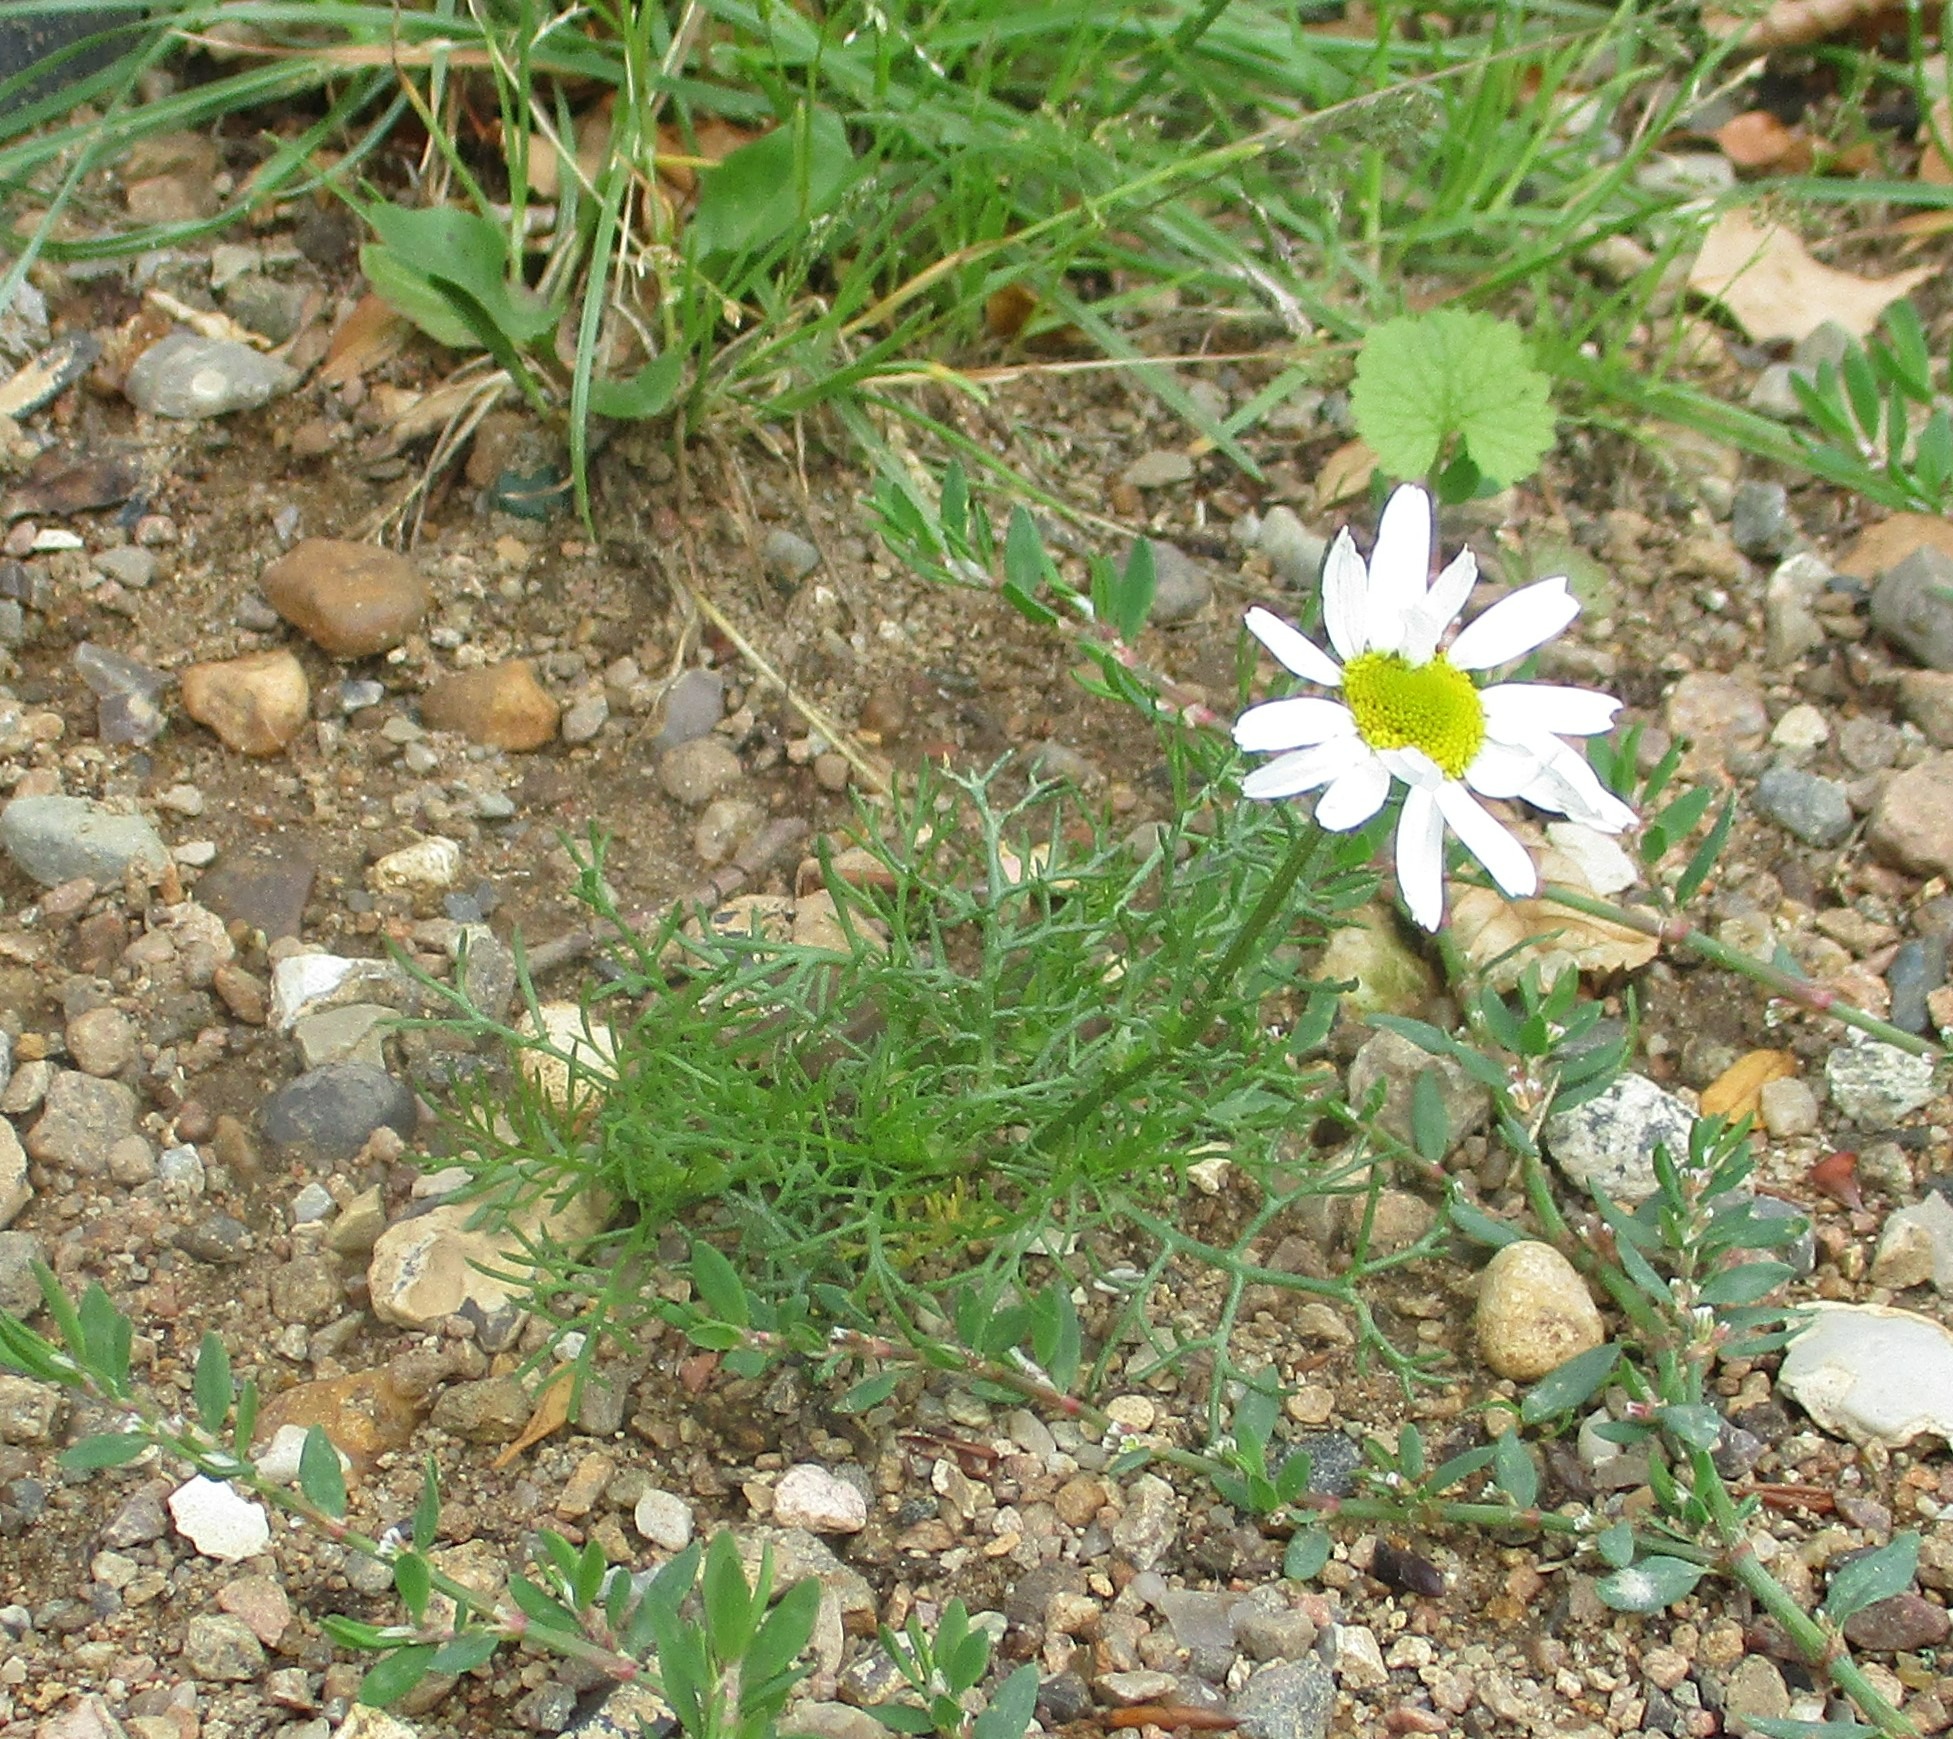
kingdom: Plantae
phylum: Tracheophyta
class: Magnoliopsida
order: Asterales
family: Asteraceae
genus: Tripleurospermum
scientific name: Tripleurospermum inodorum
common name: Lugtløs kamille
